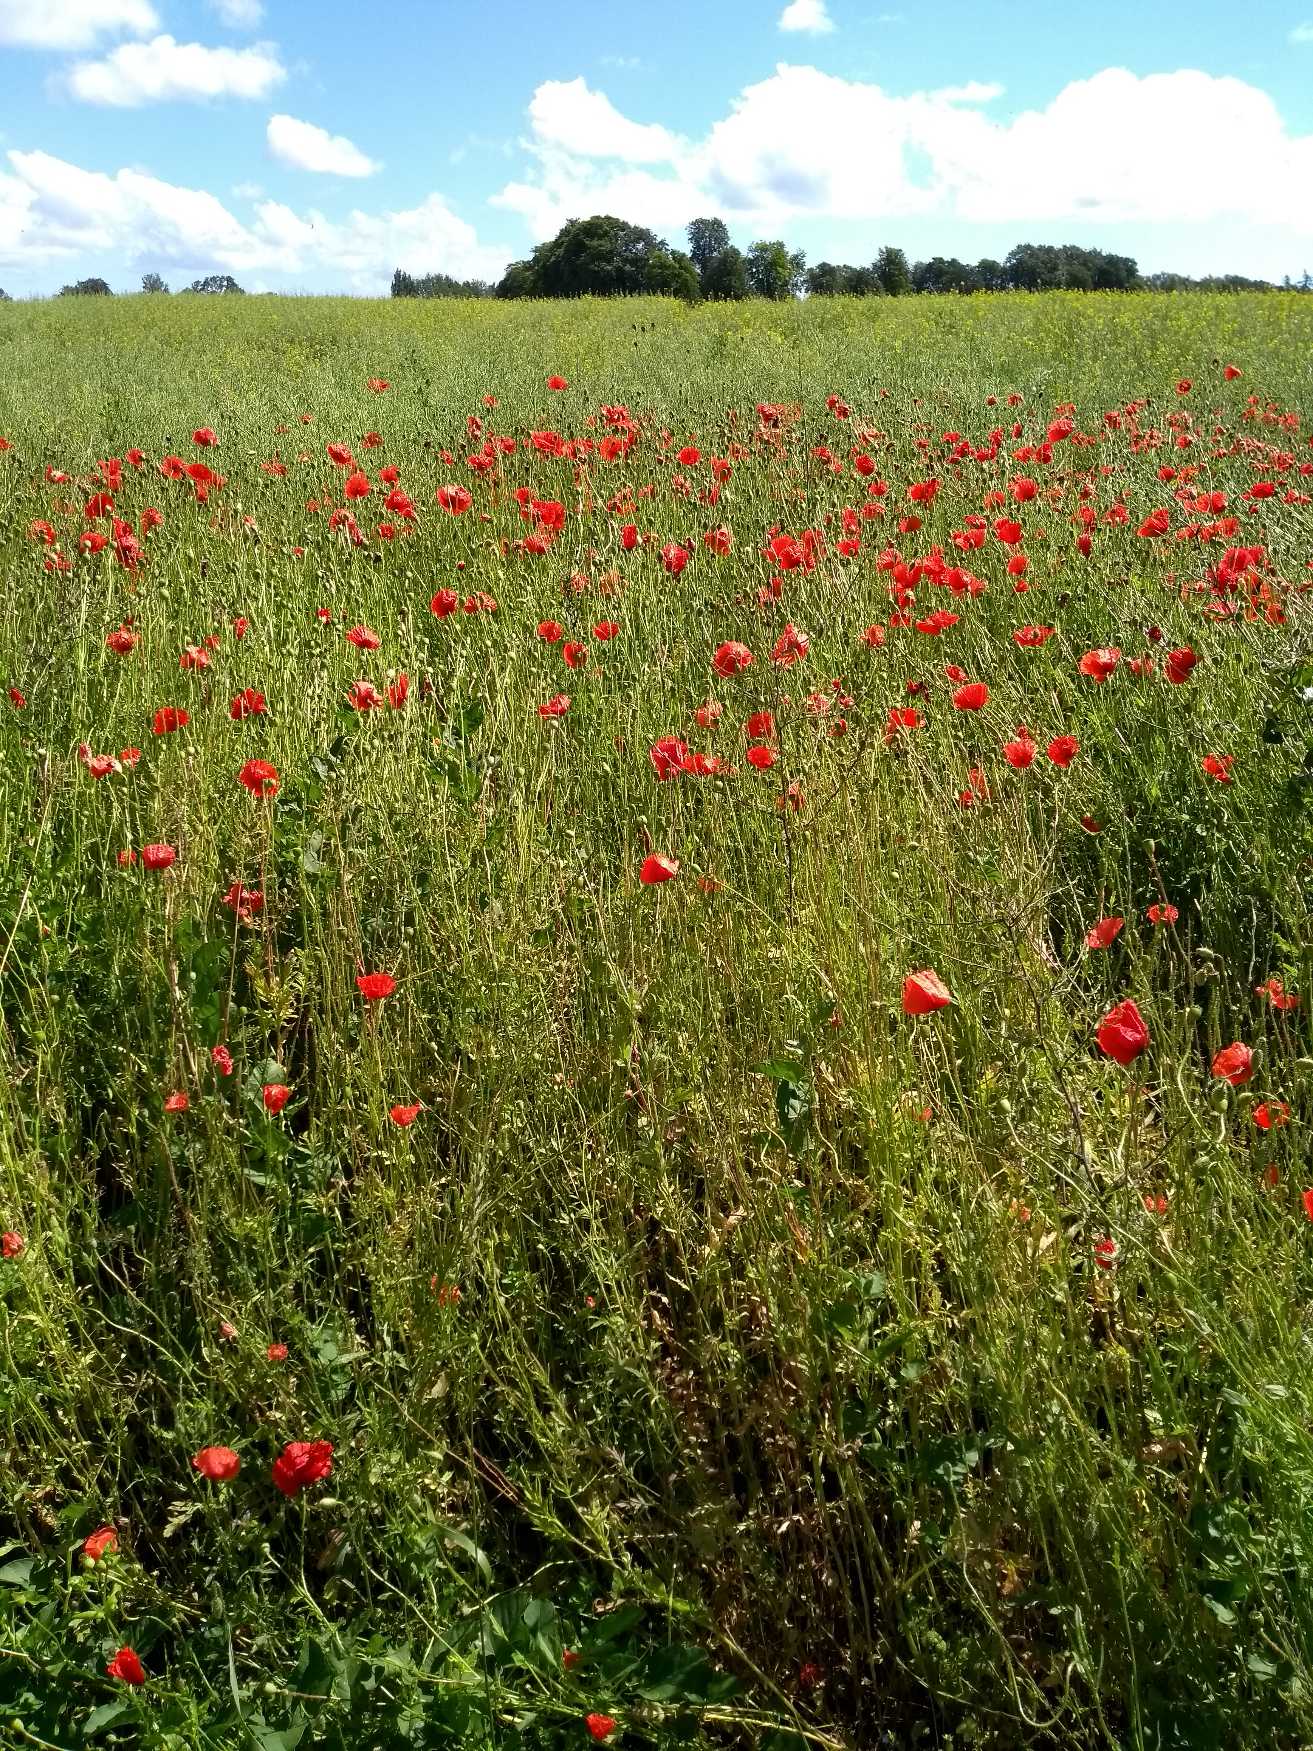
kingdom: Plantae
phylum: Tracheophyta
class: Magnoliopsida
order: Ranunculales
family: Papaveraceae
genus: Papaver
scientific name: Papaver dubium
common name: Gærde-valmue
